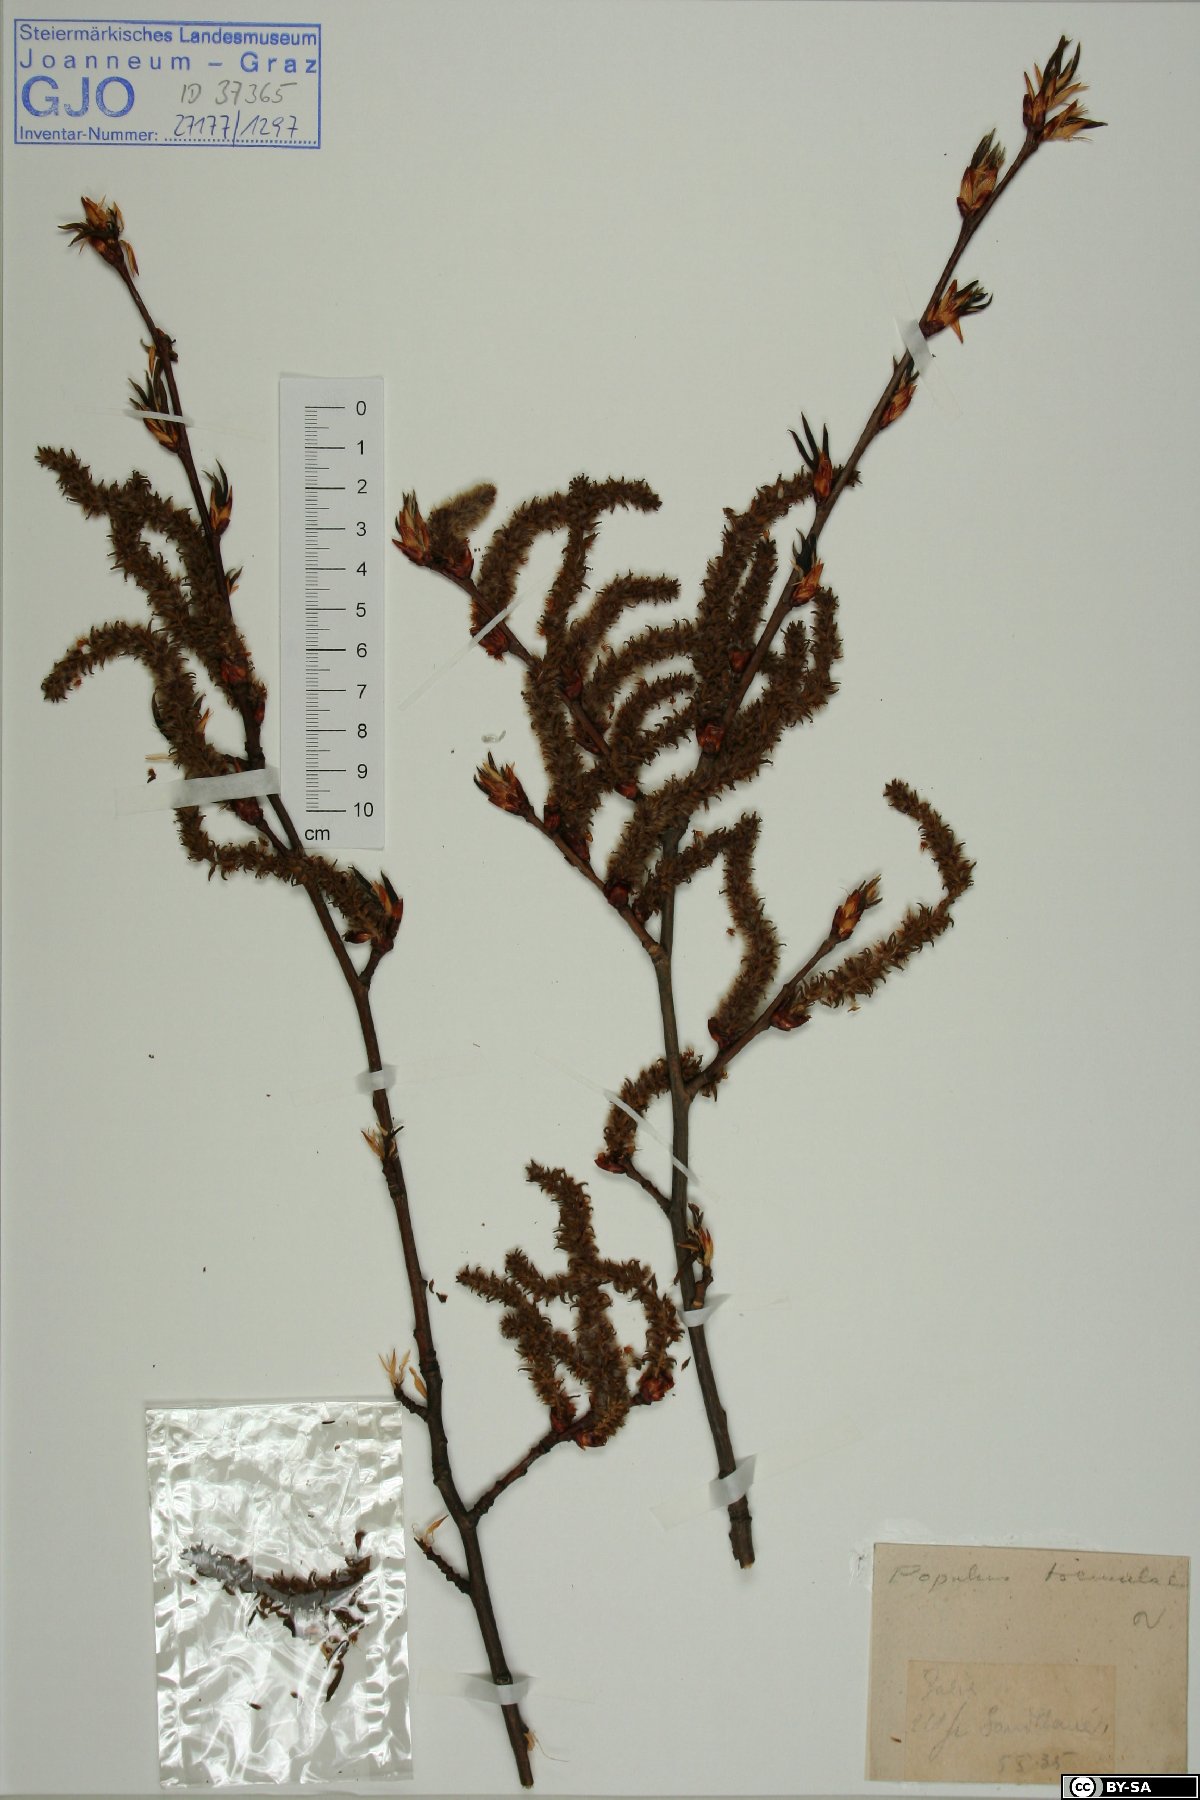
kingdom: Plantae
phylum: Tracheophyta
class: Magnoliopsida
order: Malpighiales
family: Salicaceae
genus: Populus
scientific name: Populus tremula
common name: European aspen
